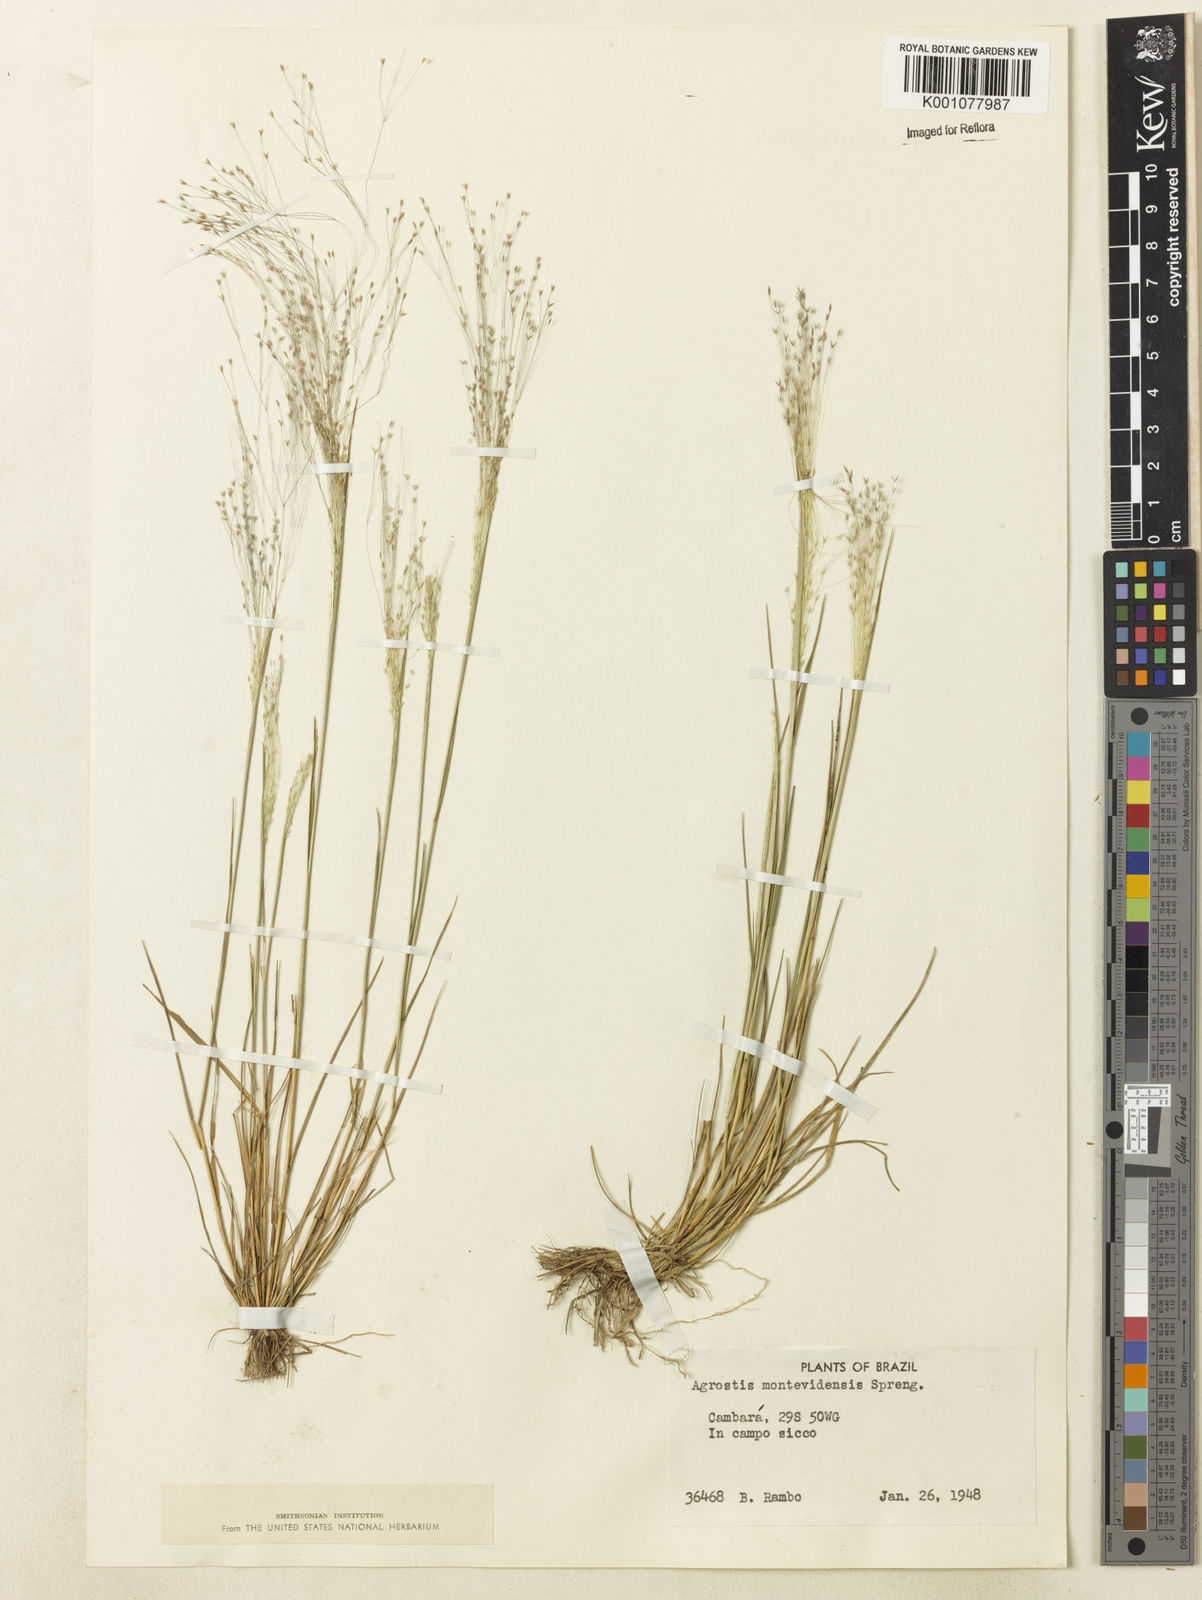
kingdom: Plantae
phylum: Tracheophyta
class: Liliopsida
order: Poales
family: Poaceae
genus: Agrostis
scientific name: Agrostis montevidensis
